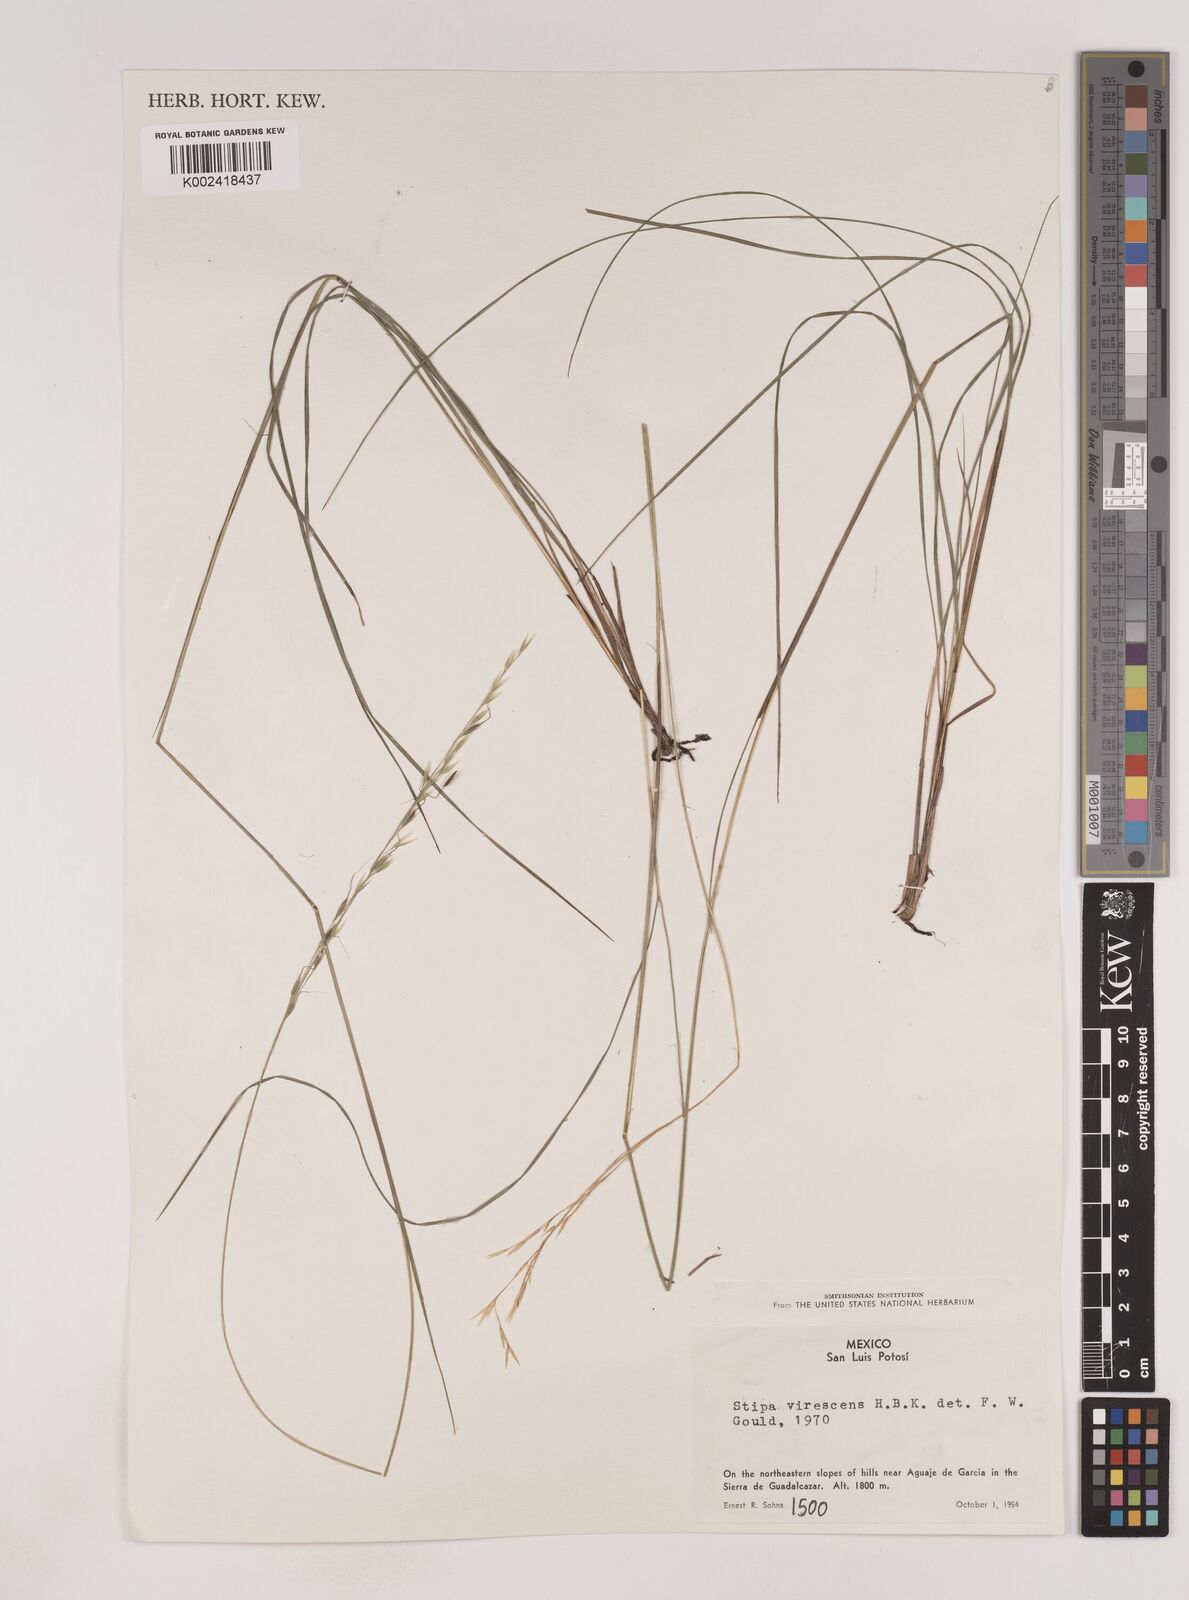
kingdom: Plantae
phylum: Tracheophyta
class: Liliopsida
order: Poales
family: Poaceae
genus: Piptochaetium
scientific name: Piptochaetium virescens
